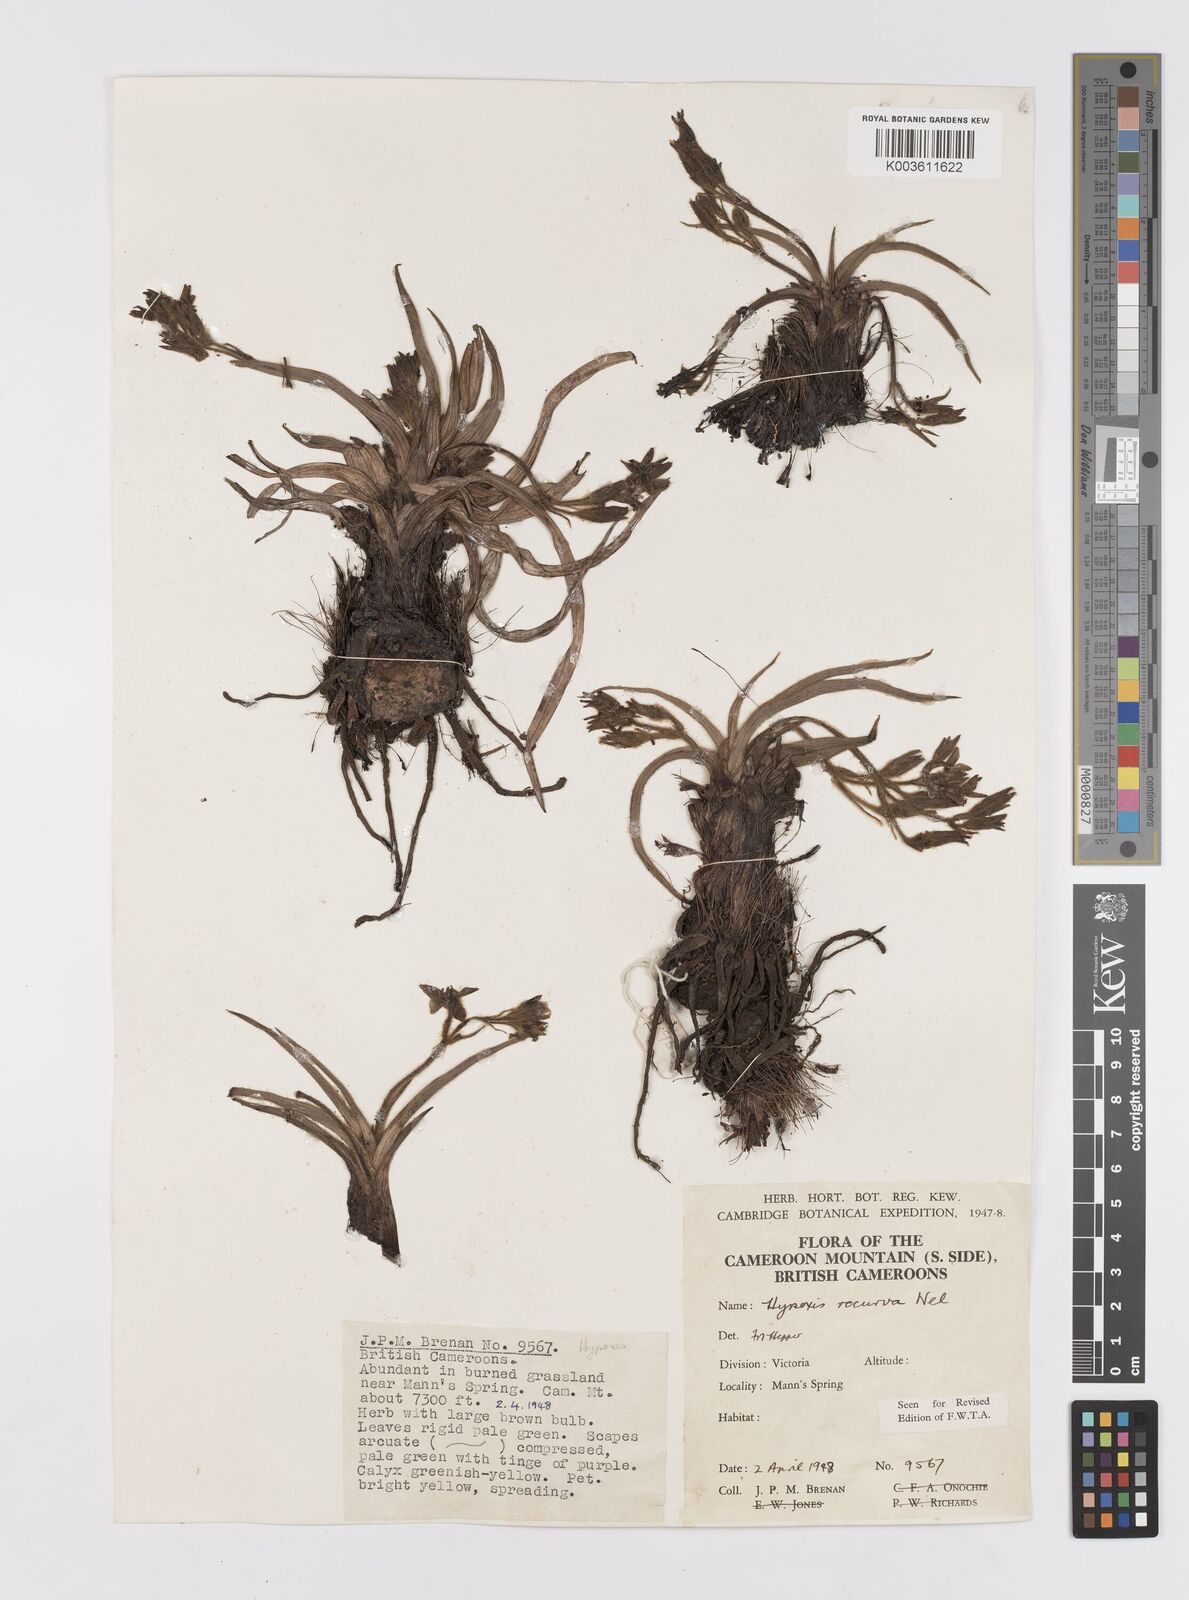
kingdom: Plantae
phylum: Tracheophyta
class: Liliopsida
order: Asparagales
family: Hypoxidaceae
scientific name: Hypoxidaceae
